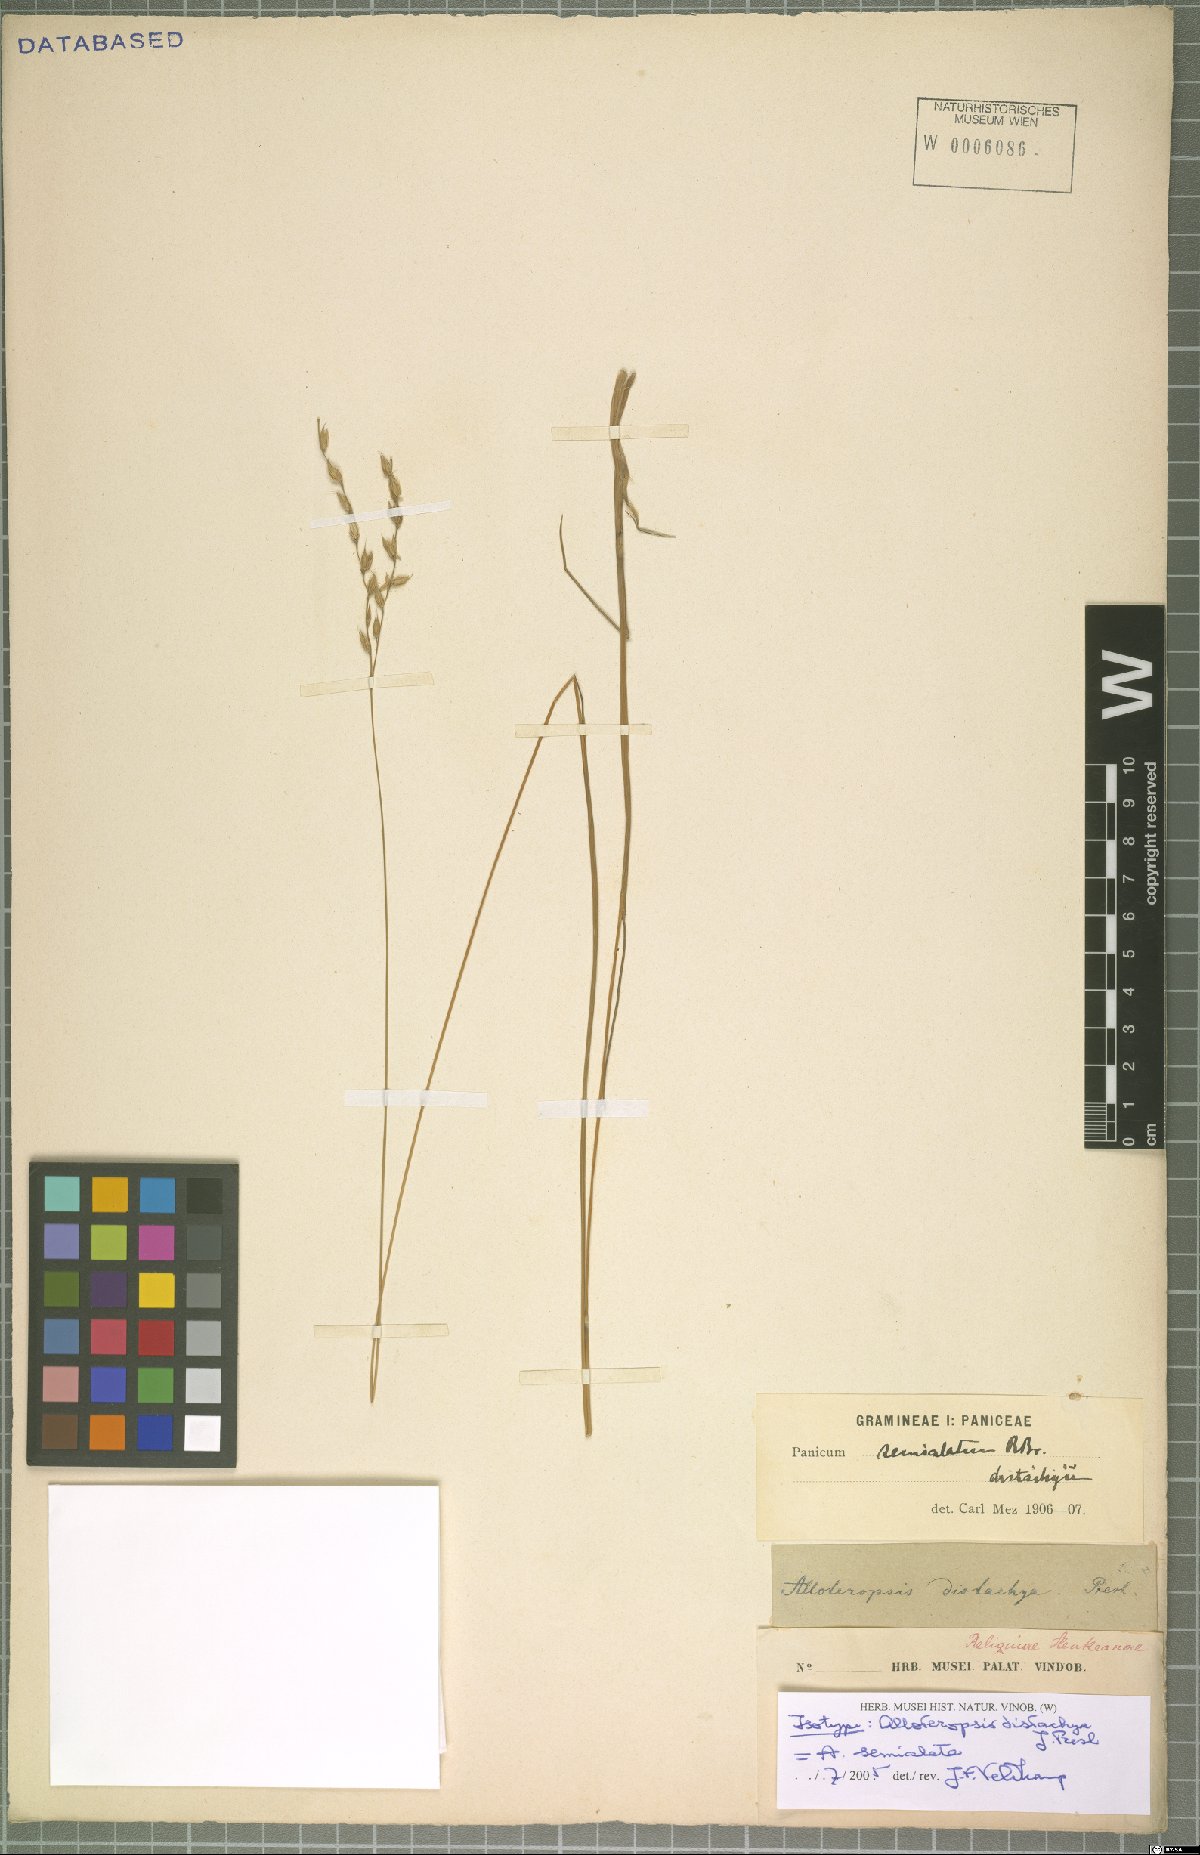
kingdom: Plantae
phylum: Tracheophyta
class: Liliopsida
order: Poales
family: Poaceae
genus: Alloteropsis
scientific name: Alloteropsis semialata
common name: Cockatoo grass
